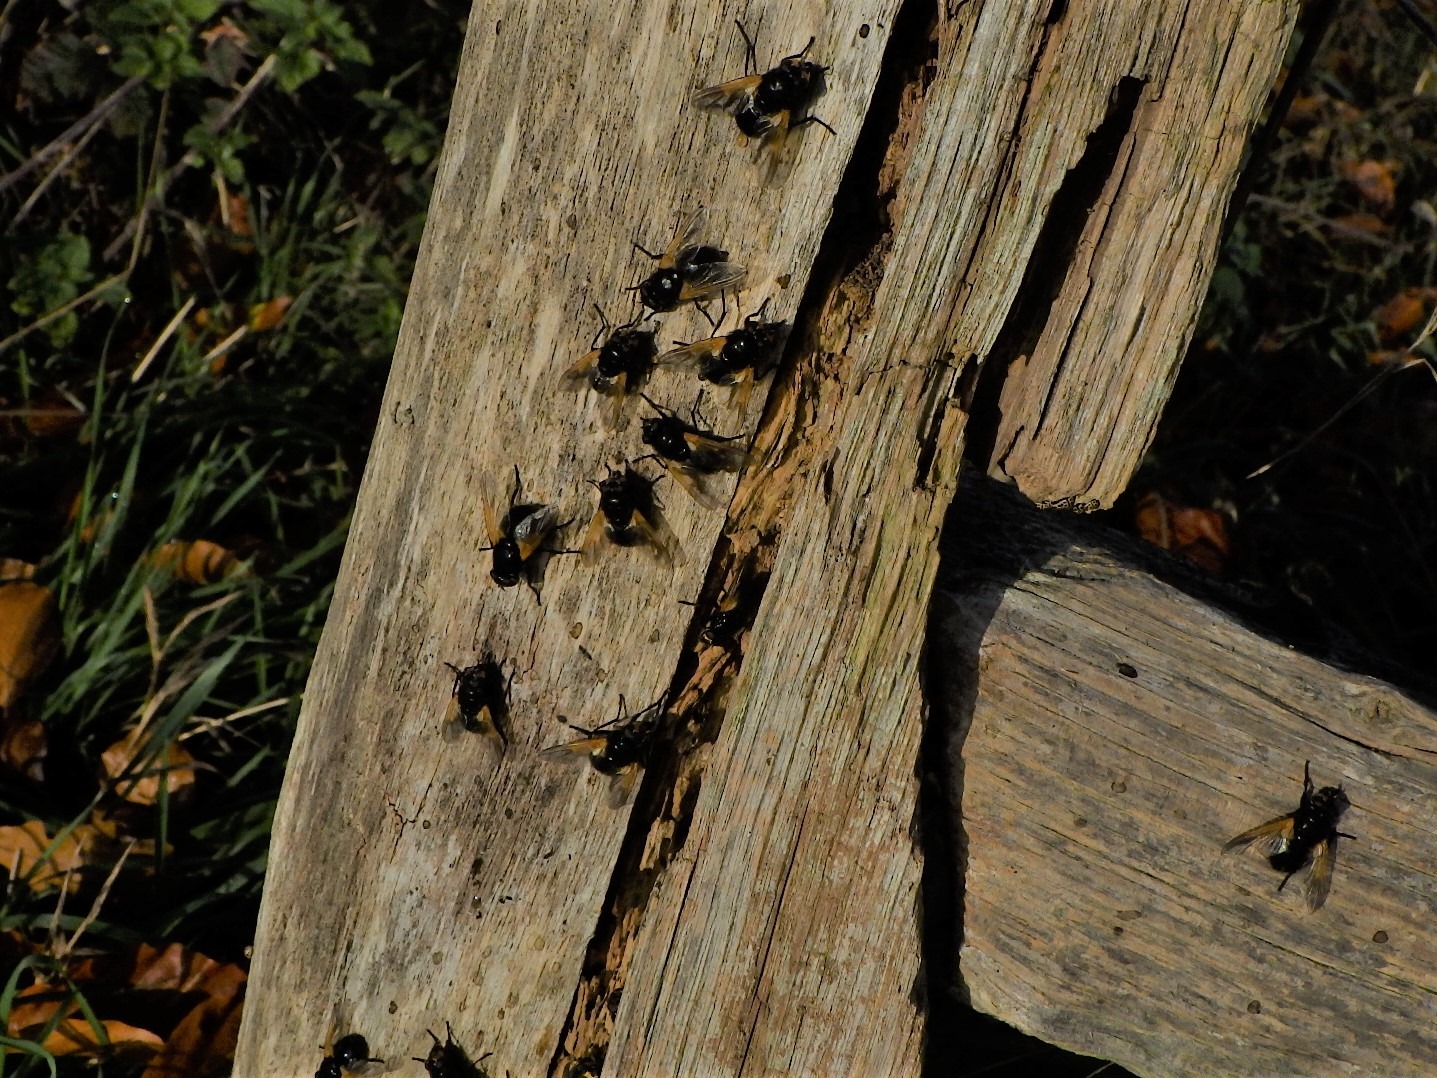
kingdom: Animalia
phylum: Arthropoda
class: Insecta
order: Diptera
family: Muscidae
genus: Mesembrina
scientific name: Mesembrina meridiana
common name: Gulvinget flue
